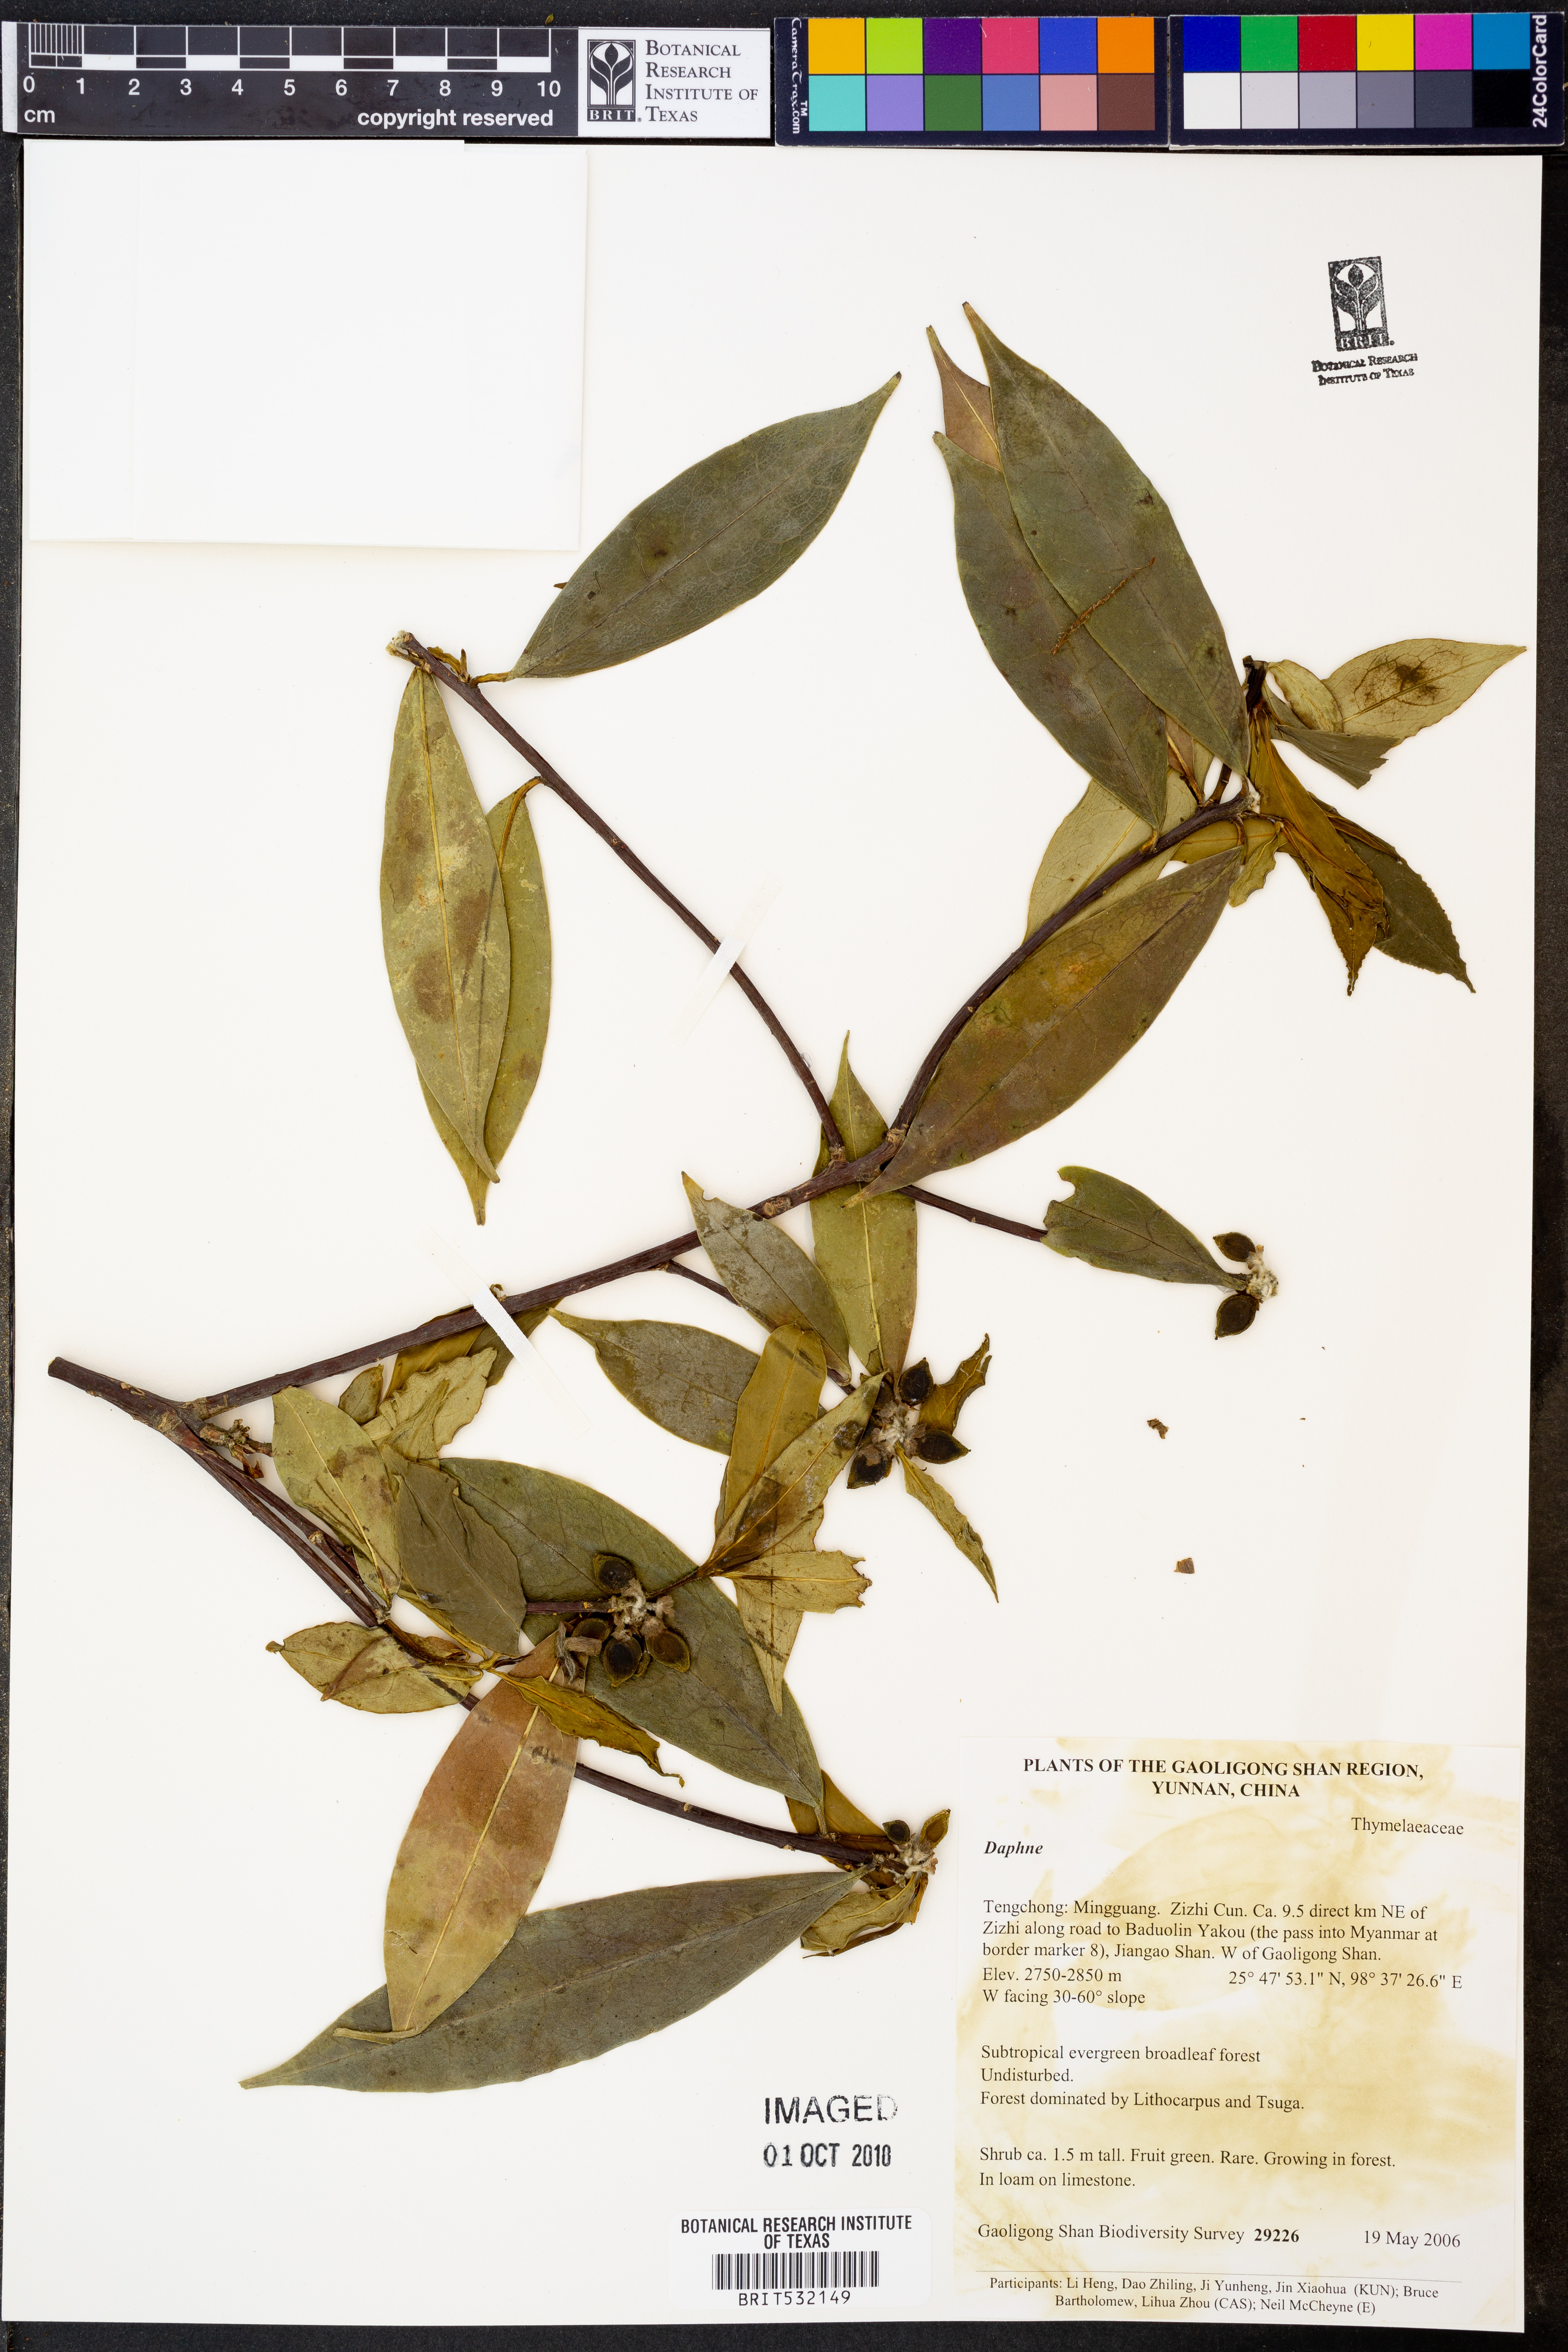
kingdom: Plantae
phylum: Tracheophyta
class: Magnoliopsida
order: Malvales
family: Thymelaeaceae
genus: Daphne
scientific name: Daphne
